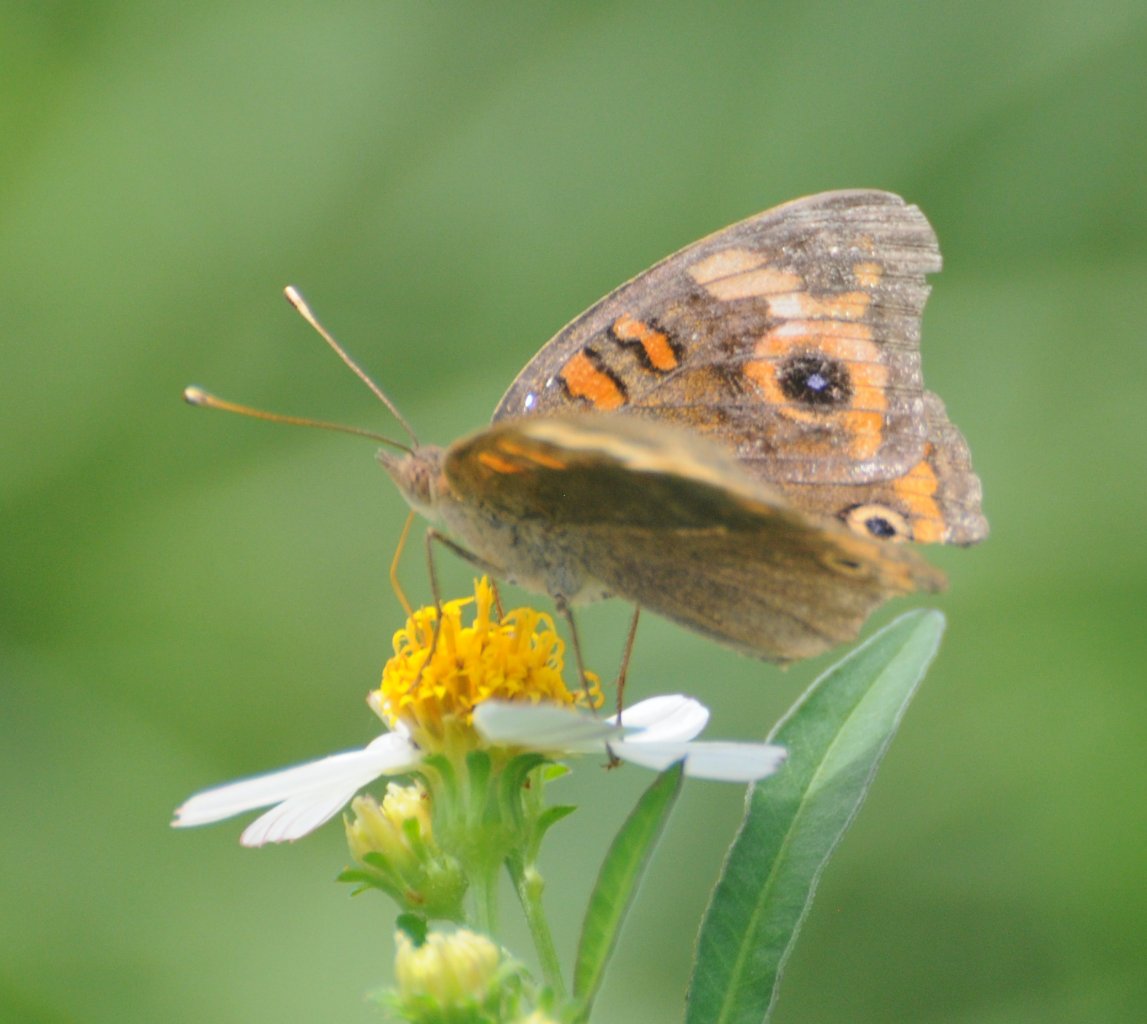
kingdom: Animalia
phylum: Arthropoda
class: Insecta
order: Lepidoptera
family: Nymphalidae
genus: Junonia
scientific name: Junonia evarete
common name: Mangrove Buckeye
